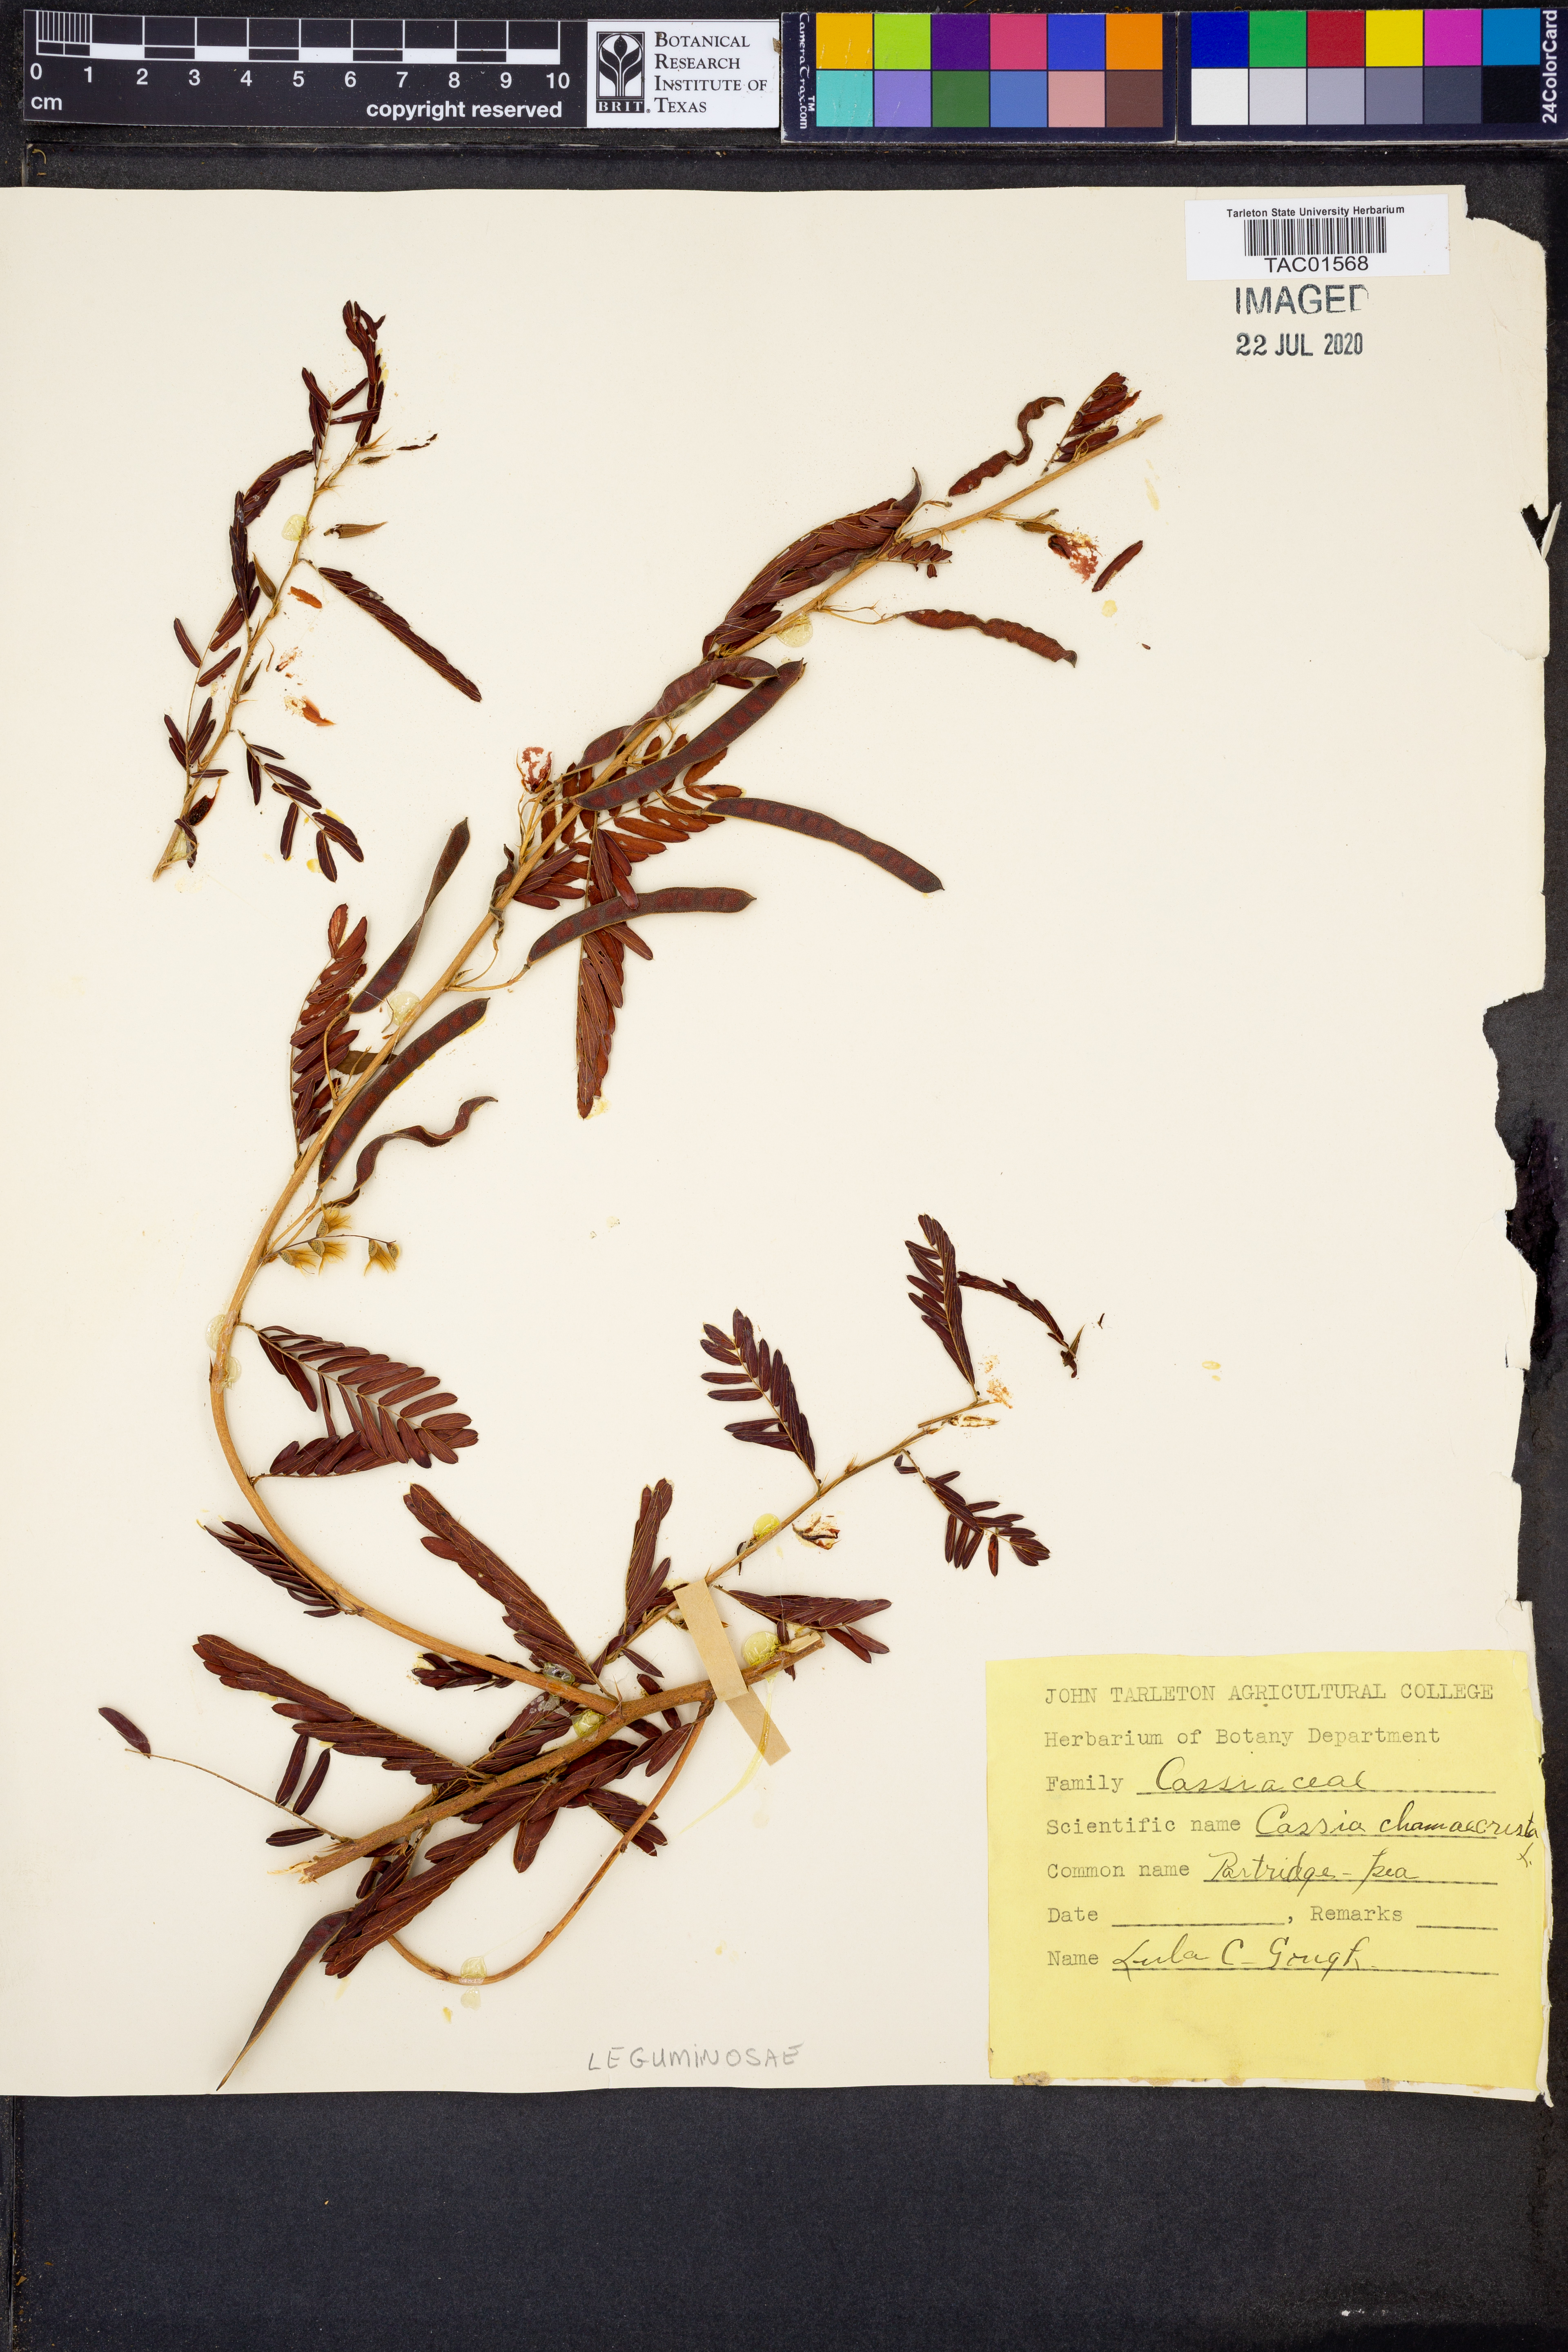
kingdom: Plantae
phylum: Tracheophyta
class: Magnoliopsida
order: Fabales
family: Fabaceae
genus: Chamaecrista
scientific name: Chamaecrista fasciculata
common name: Golden cassia
